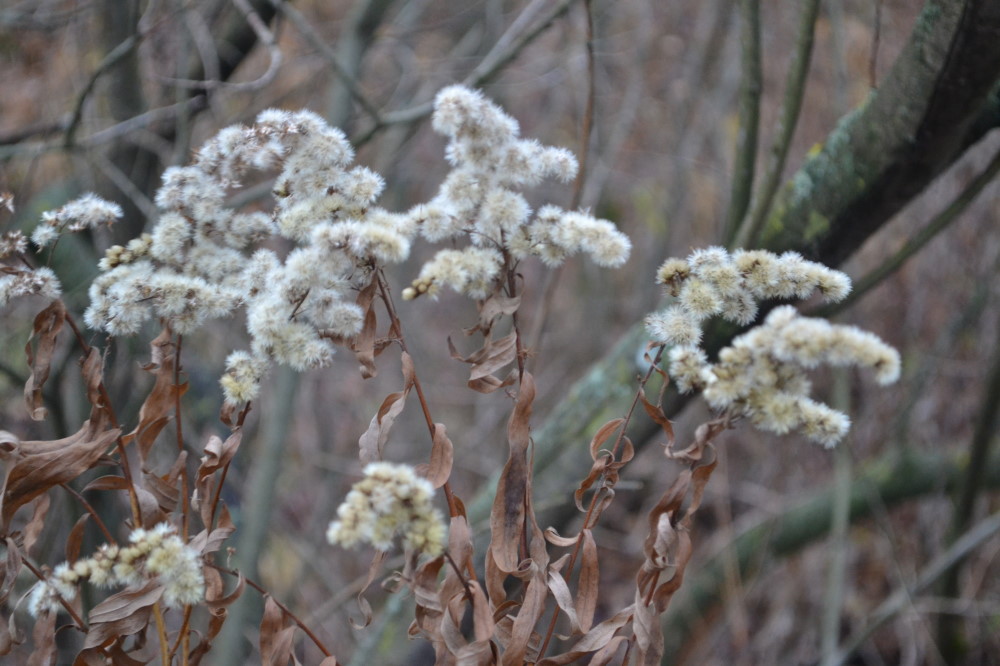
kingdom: Plantae
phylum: Tracheophyta
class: Magnoliopsida
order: Asterales
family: Asteraceae
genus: Solidago
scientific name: Solidago gigantea
